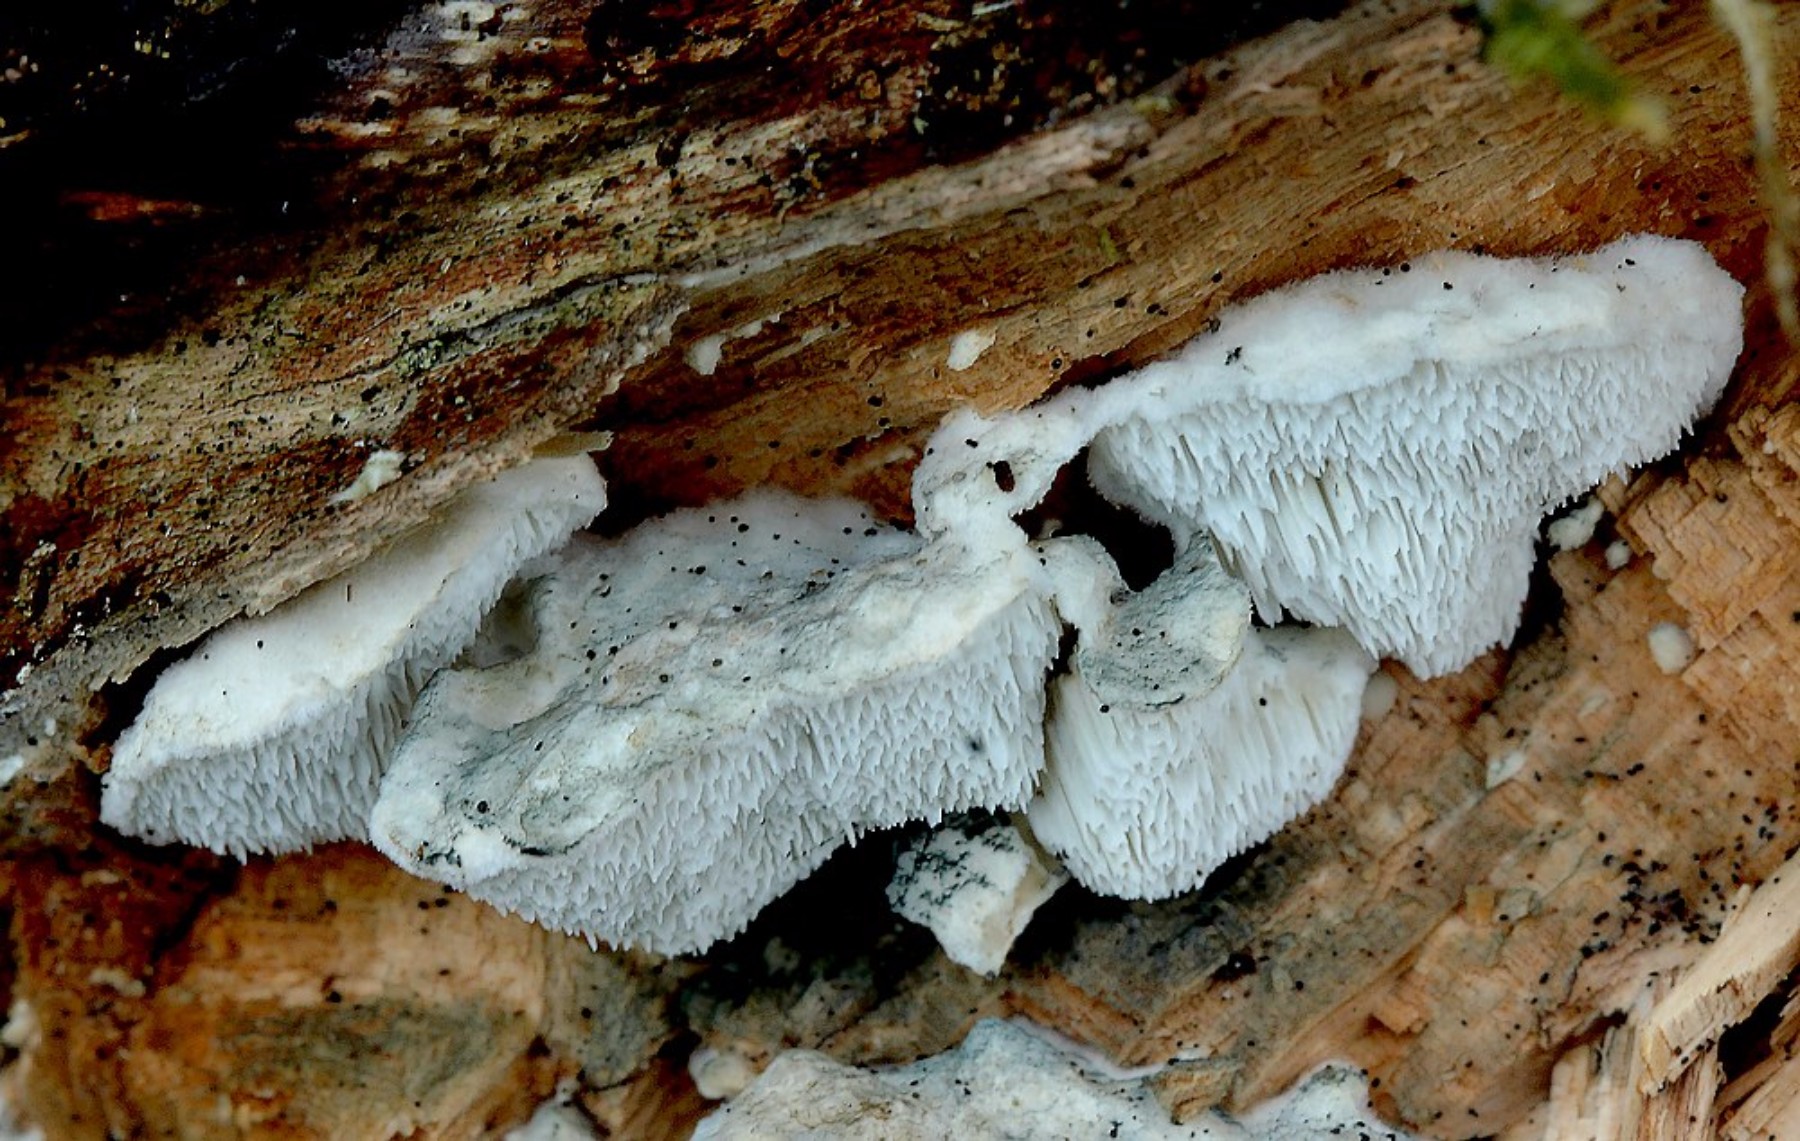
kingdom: Fungi
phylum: Basidiomycota
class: Agaricomycetes
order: Polyporales
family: Polyporaceae
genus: Cyanosporus
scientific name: Cyanosporus alni
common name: blegblå kødporesvamp
